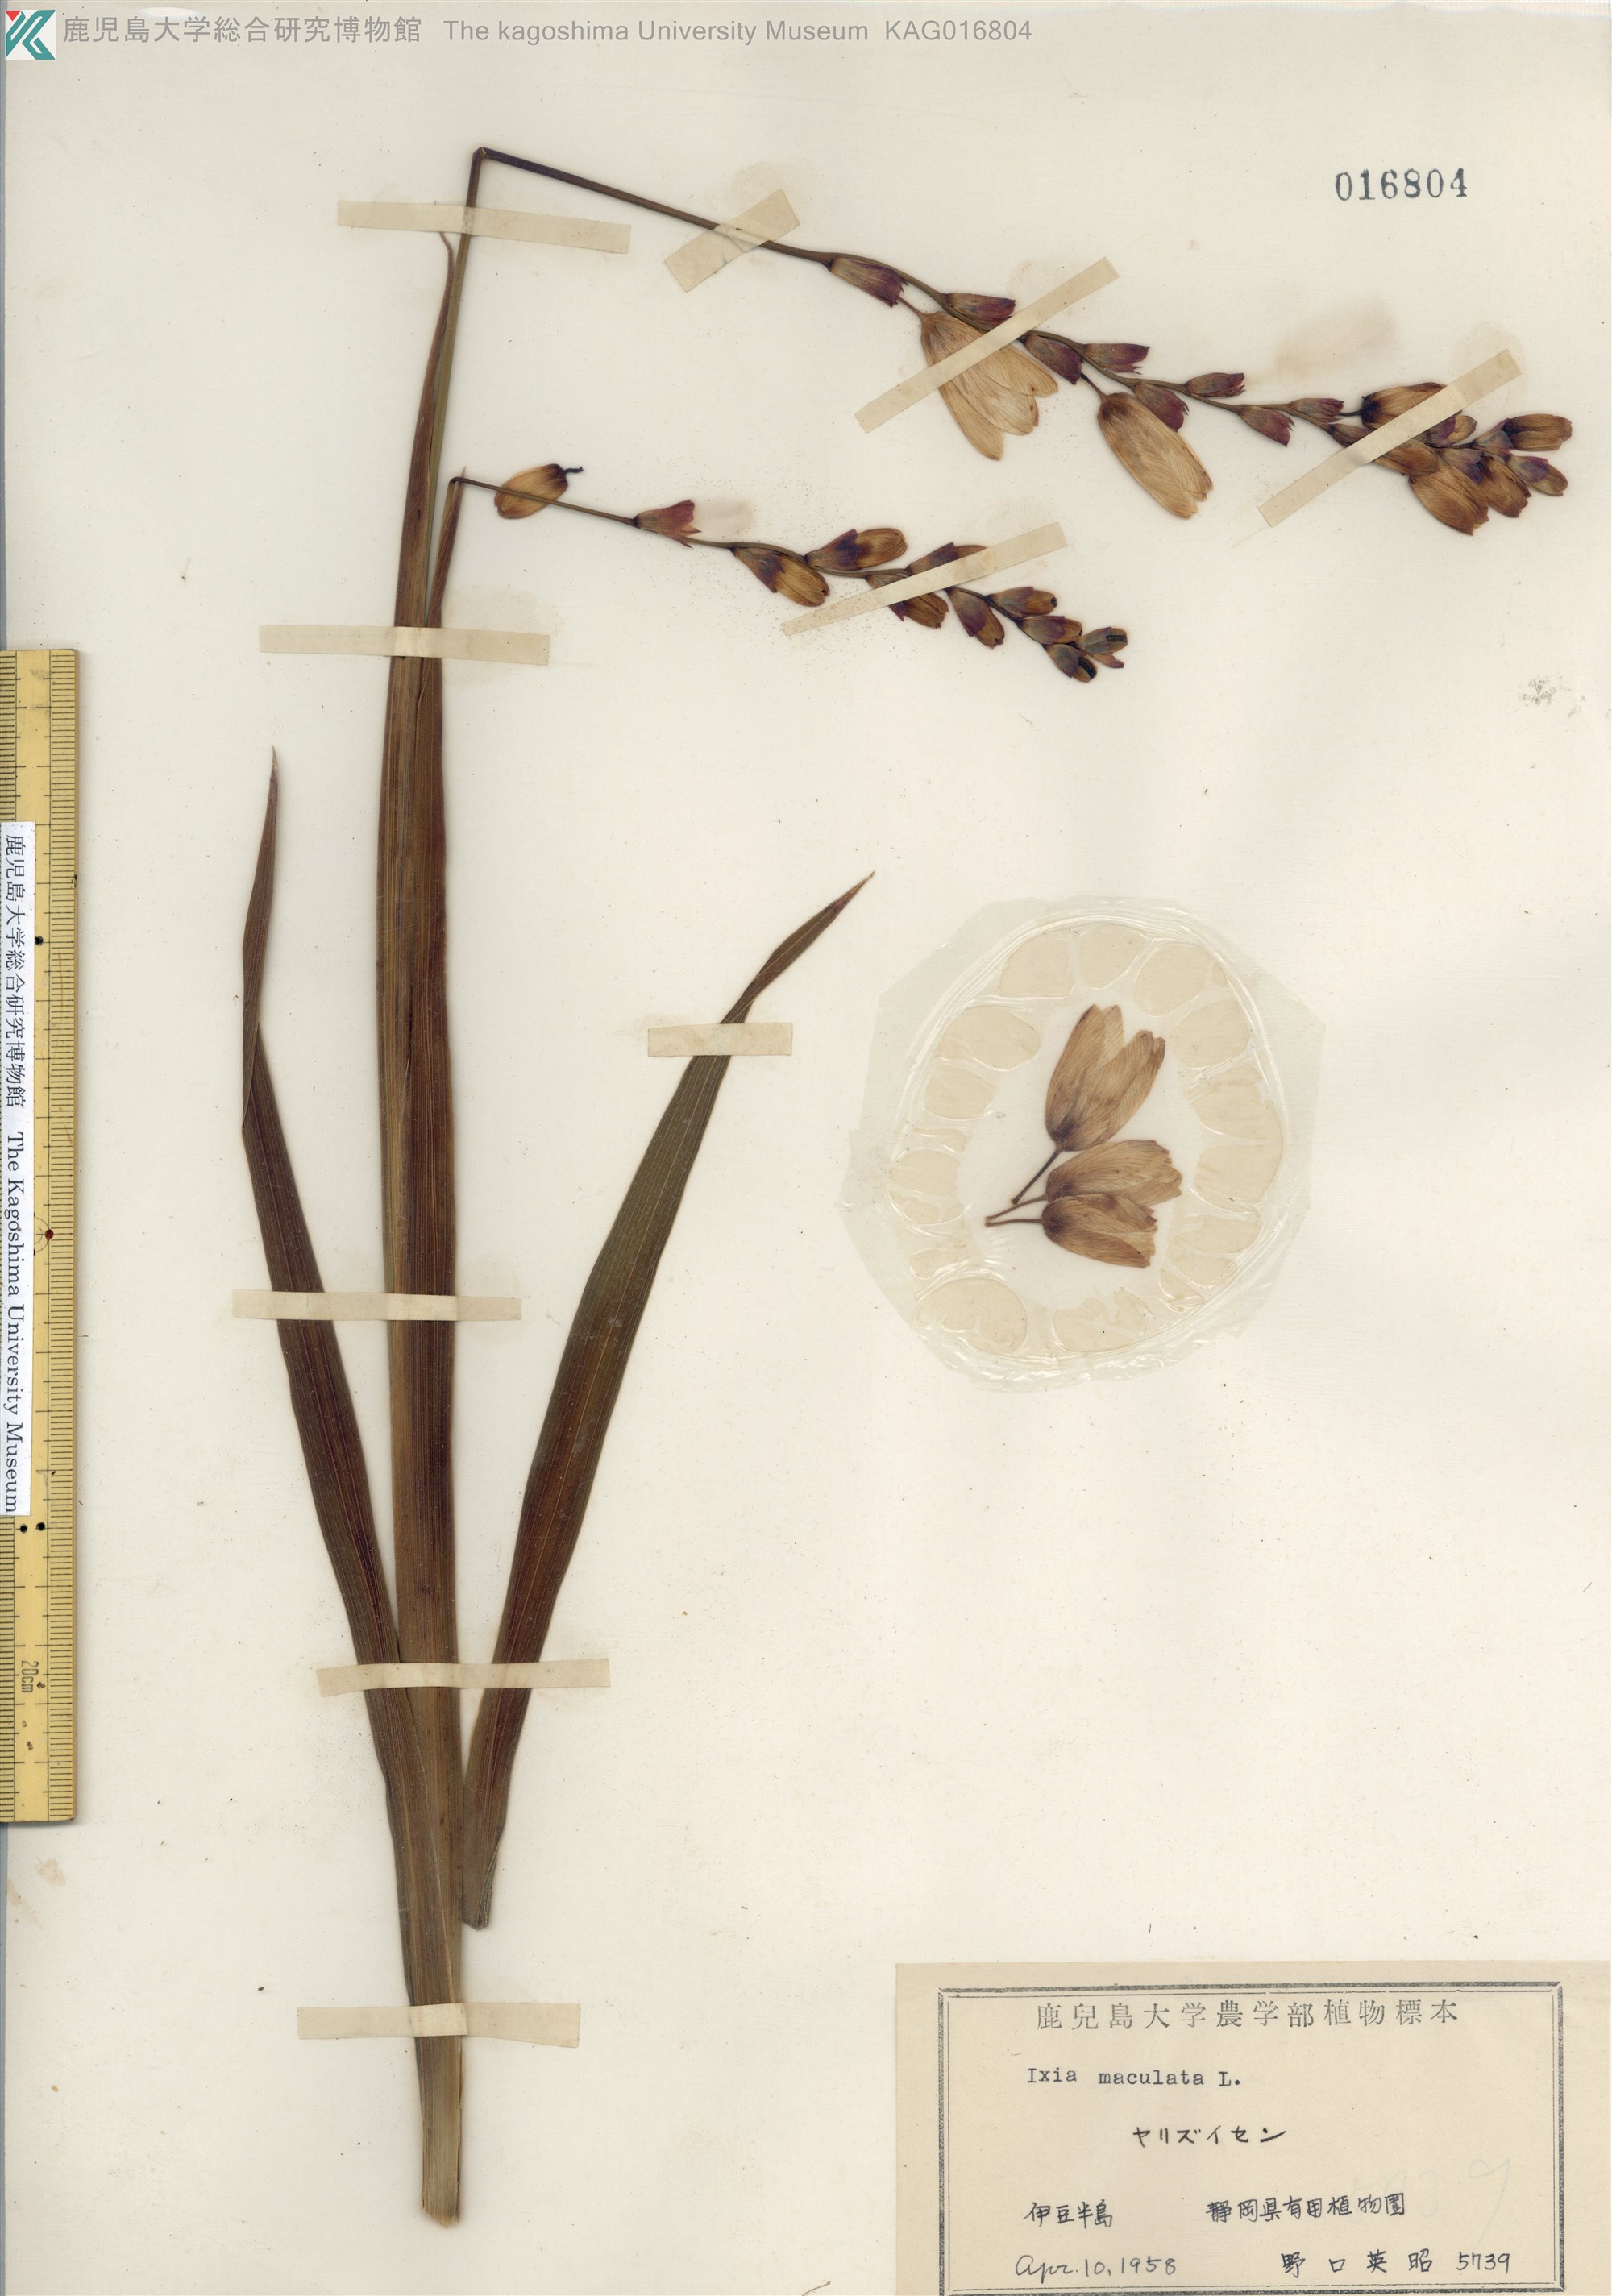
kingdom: Plantae
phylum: Tracheophyta
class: Liliopsida
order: Asparagales
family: Iridaceae
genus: Ixia
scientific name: Ixia maculata
